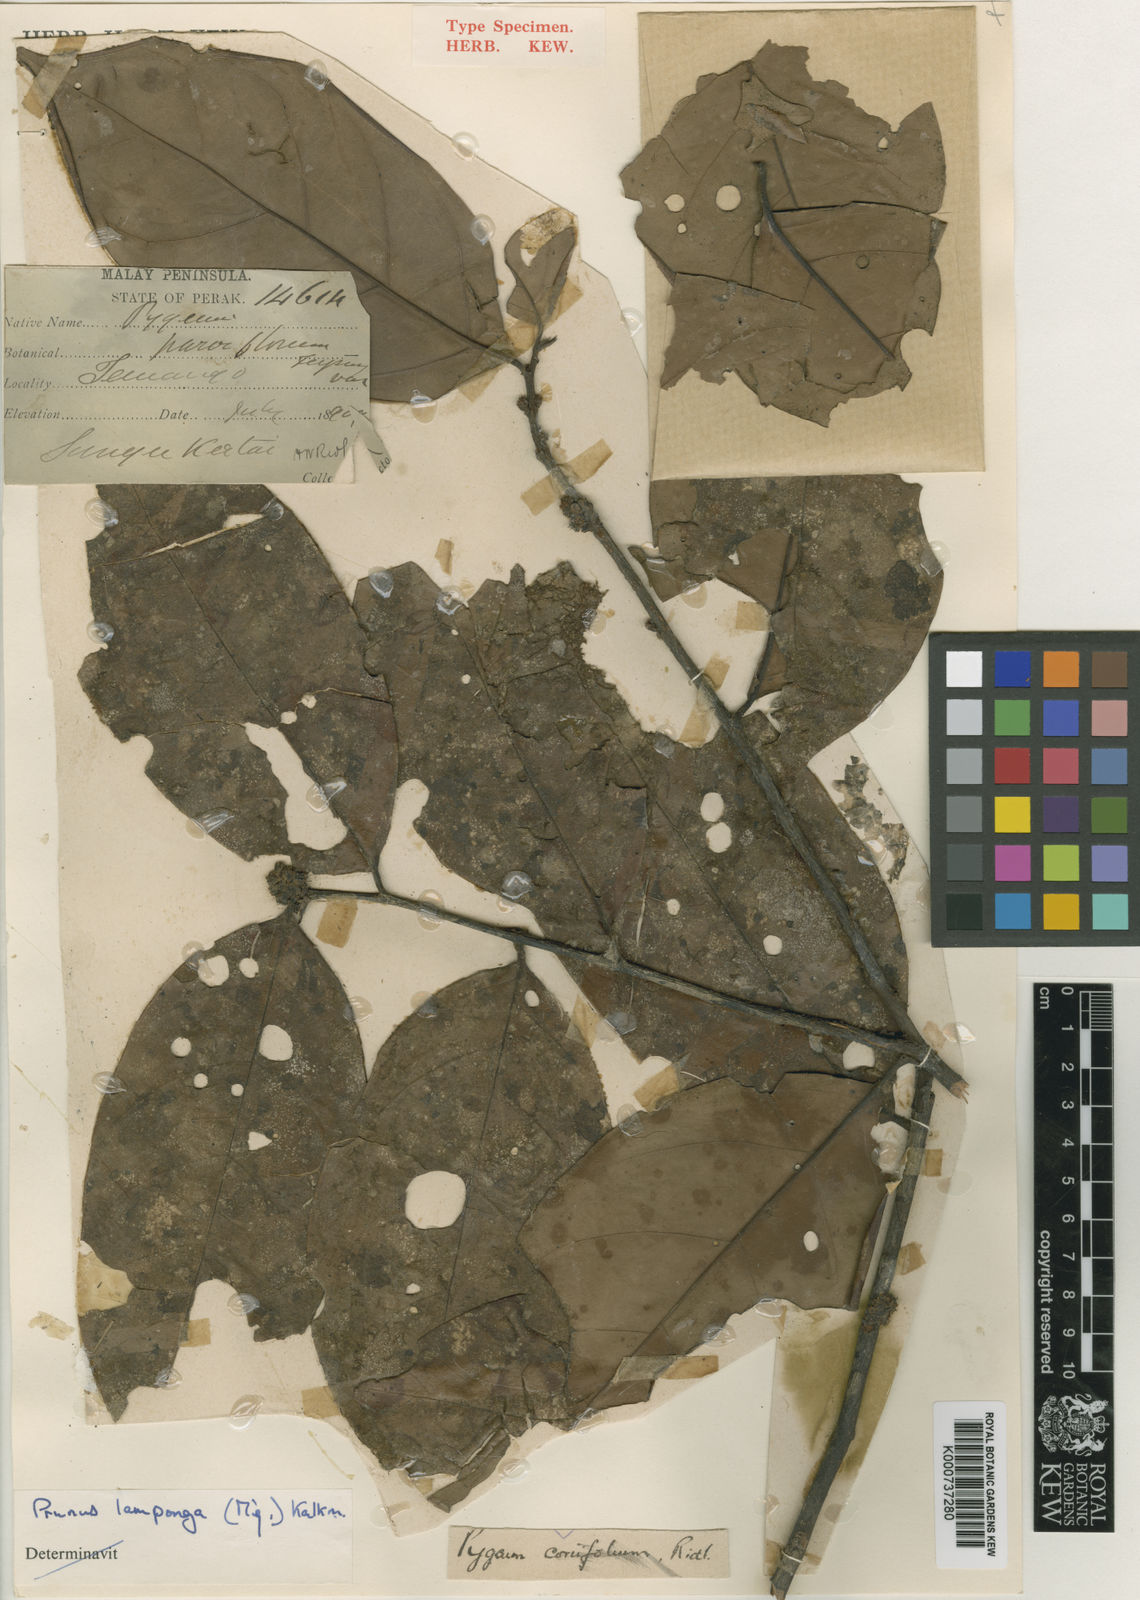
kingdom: Plantae
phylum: Tracheophyta
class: Magnoliopsida
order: Rosales
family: Rosaceae
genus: Prunus
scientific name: Prunus lamponga
